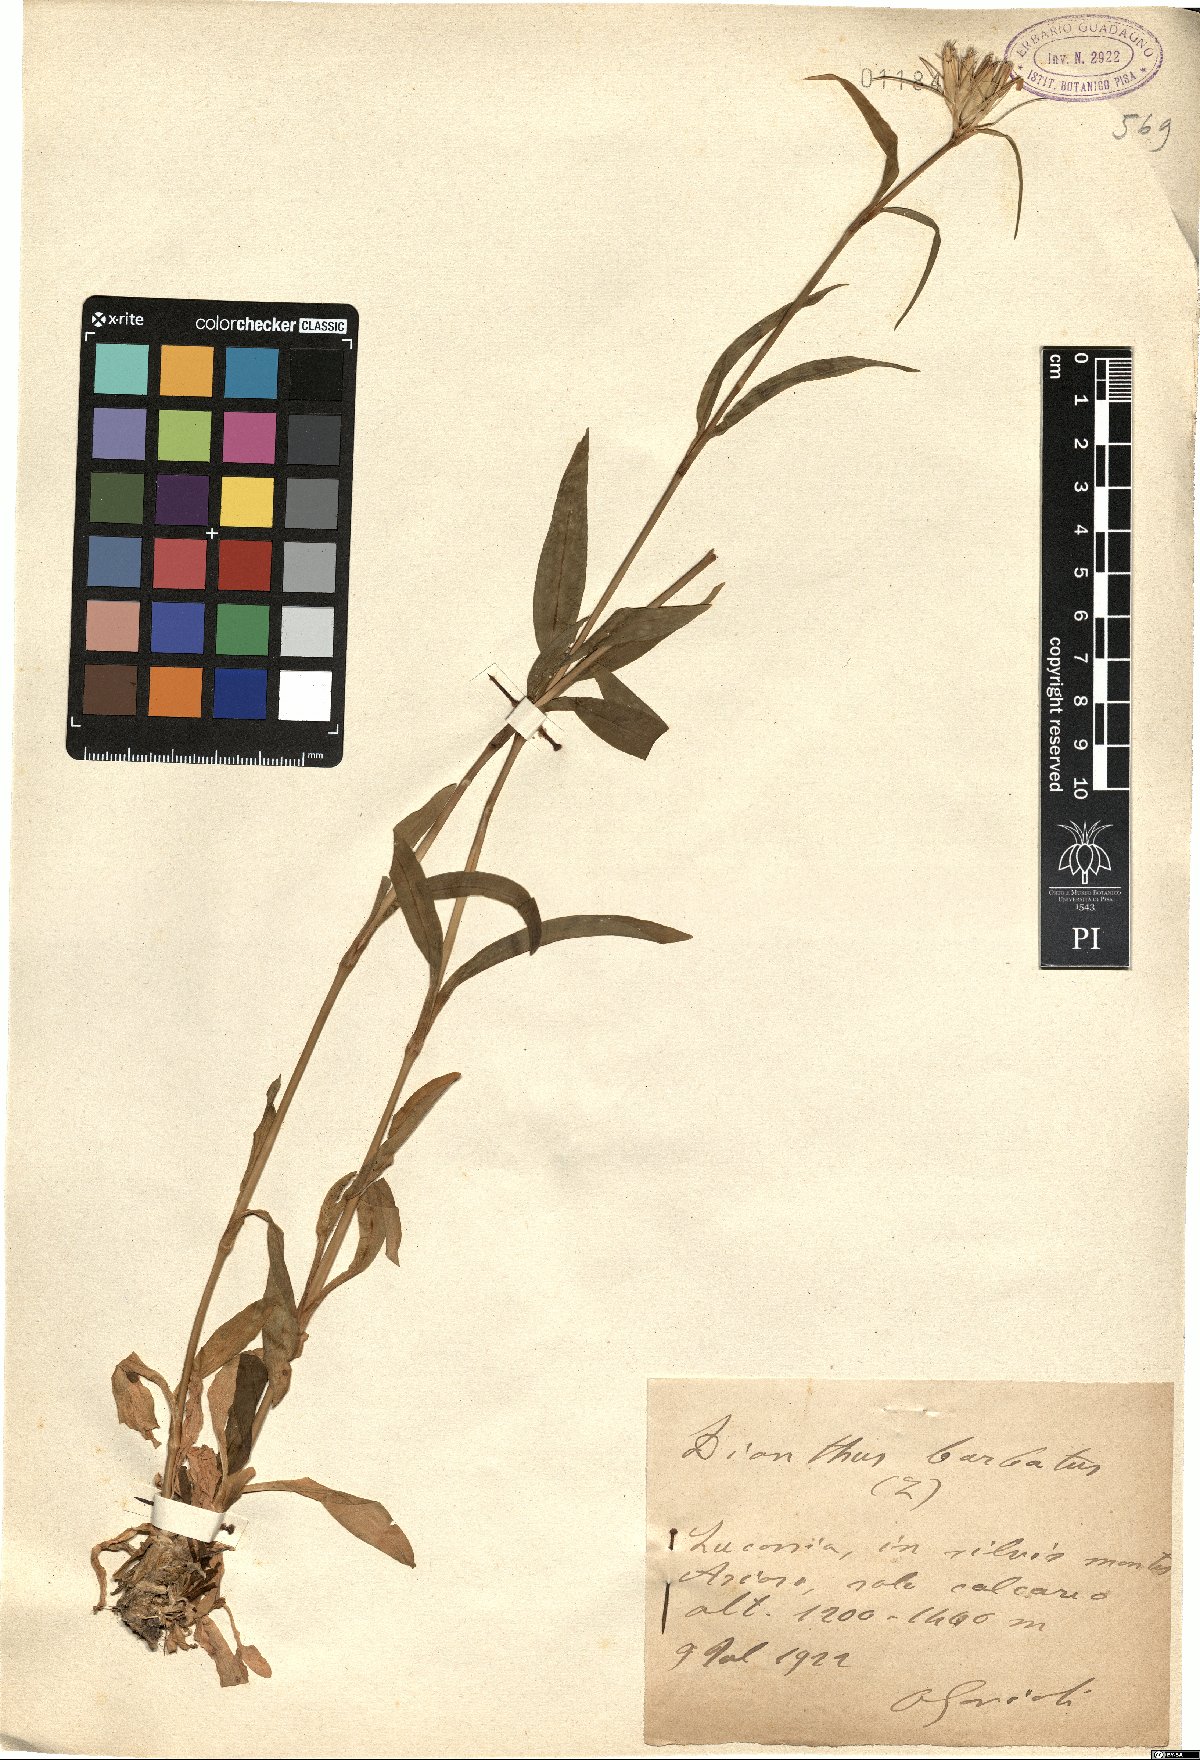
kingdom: Plantae
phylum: Tracheophyta
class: Magnoliopsida
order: Caryophyllales
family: Caryophyllaceae
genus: Dianthus
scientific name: Dianthus barbatus
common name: Sweet-william
